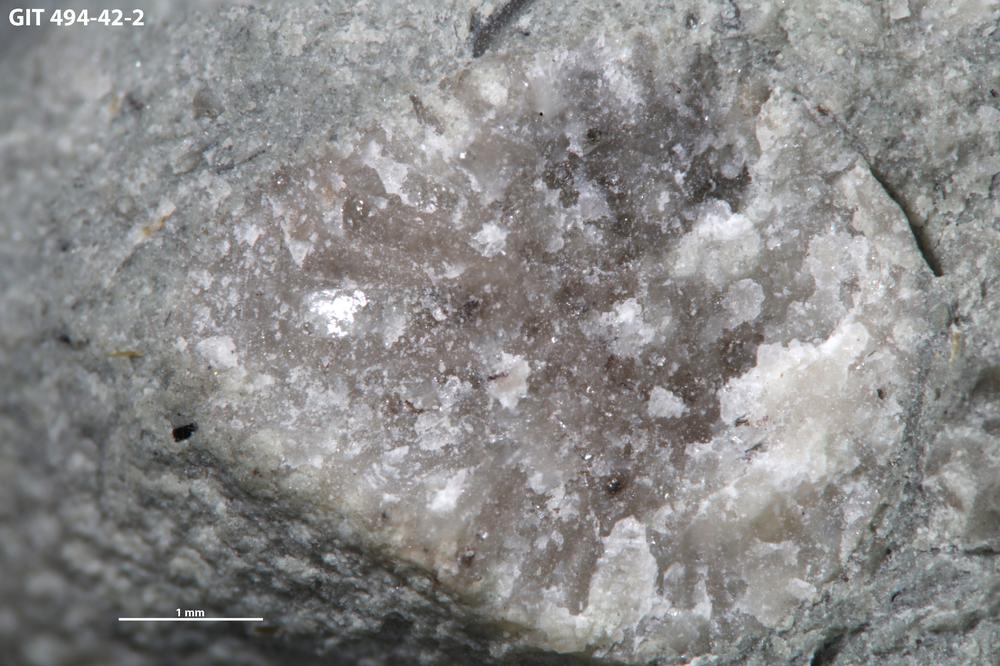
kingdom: Plantae
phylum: Tracheophyta
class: Pinopsida
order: Pinales
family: Cupressaceae
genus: Platycladus
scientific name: Platycladus
